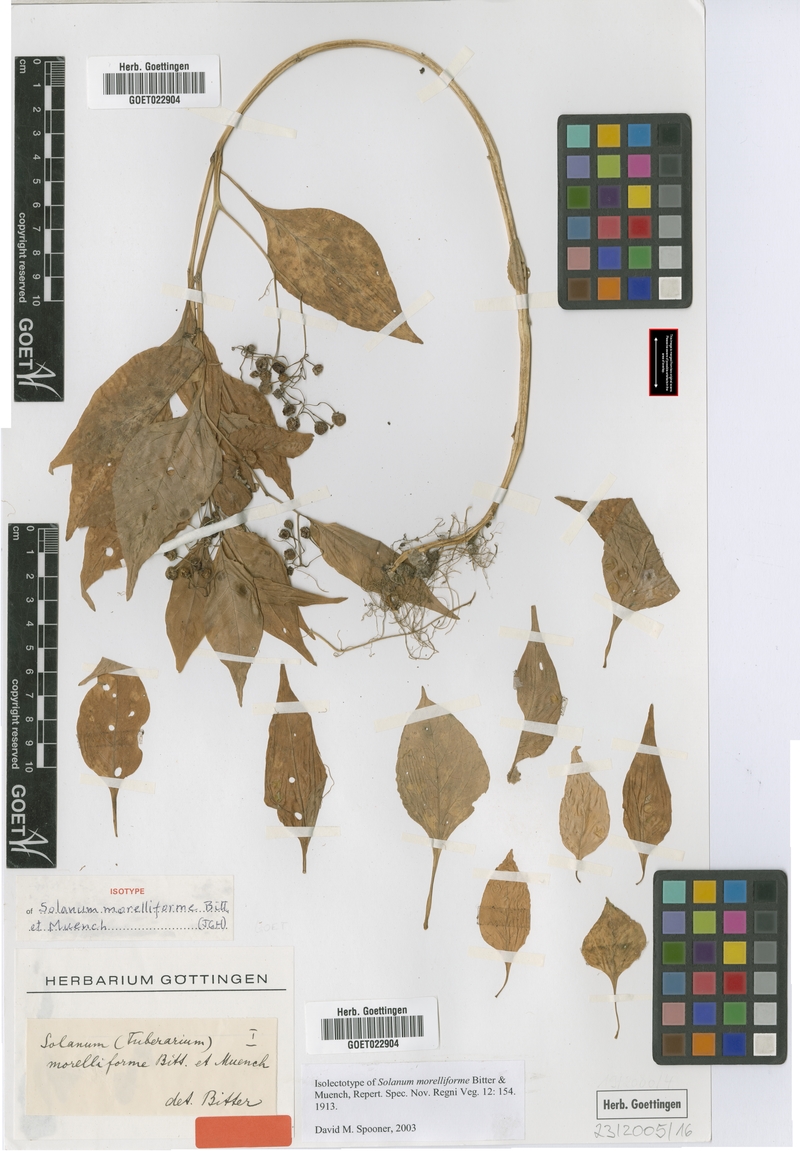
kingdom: Plantae
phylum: Tracheophyta
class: Magnoliopsida
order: Solanales
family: Solanaceae
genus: Solanum
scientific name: Solanum morelliforme
